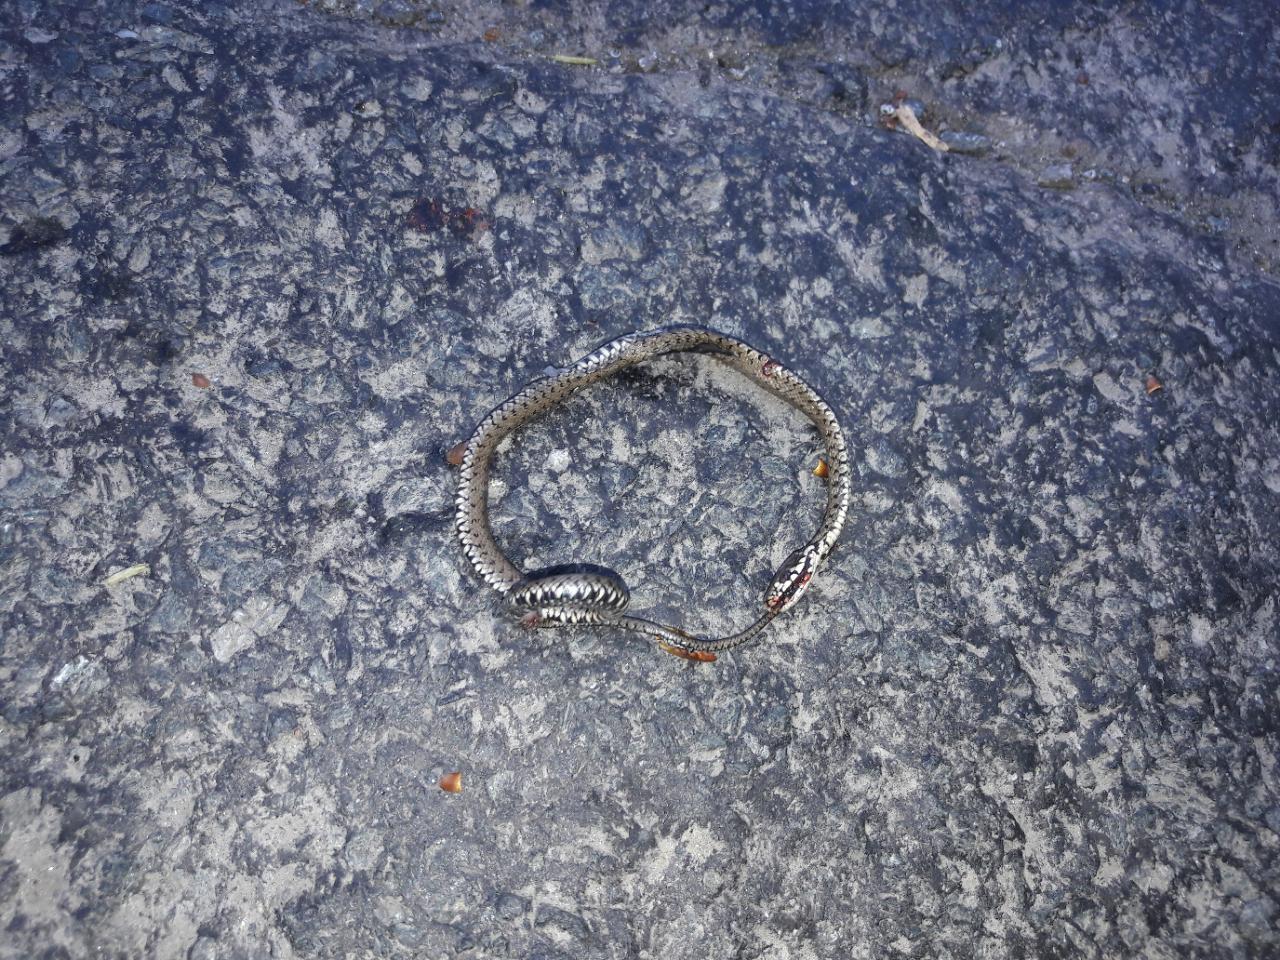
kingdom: Animalia
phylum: Chordata
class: Squamata
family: Colubridae
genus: Natrix
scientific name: Natrix natrix
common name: Grass snake
